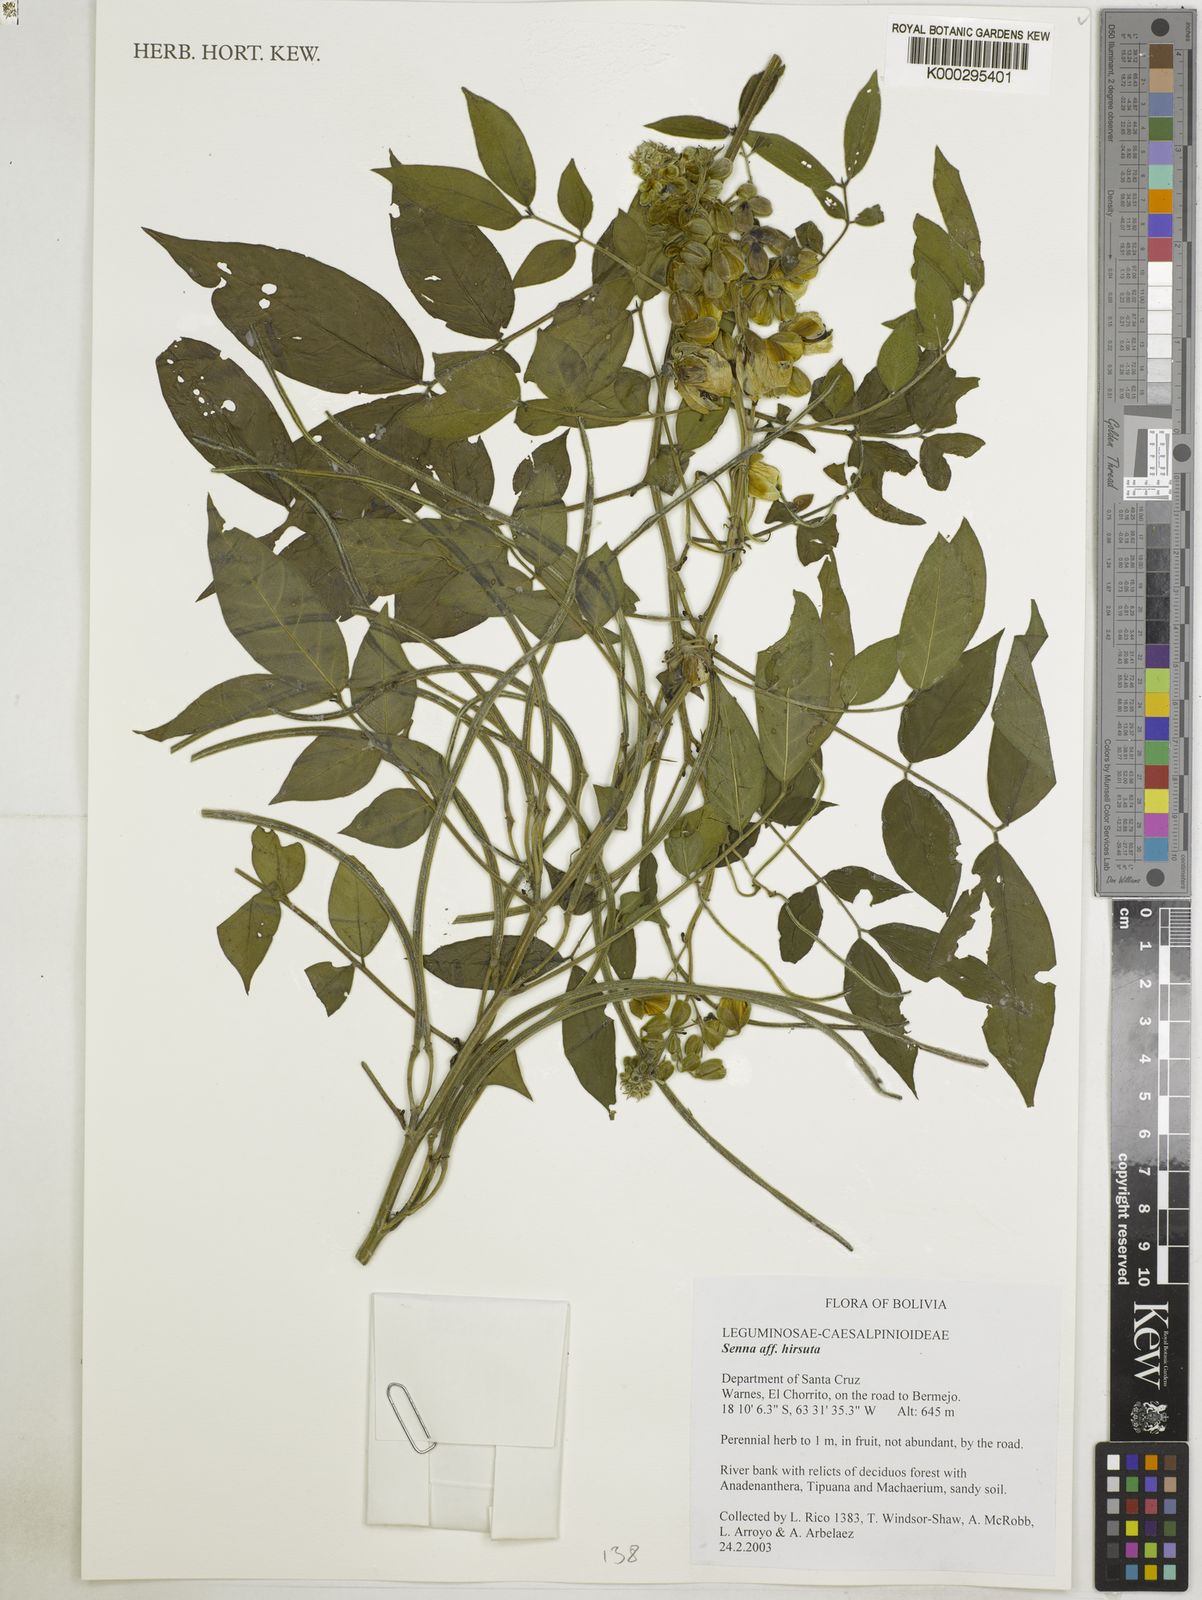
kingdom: Plantae
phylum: Tracheophyta
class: Magnoliopsida
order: Fabales
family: Fabaceae
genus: Senna
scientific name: Senna hirsuta
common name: Woolly senna
